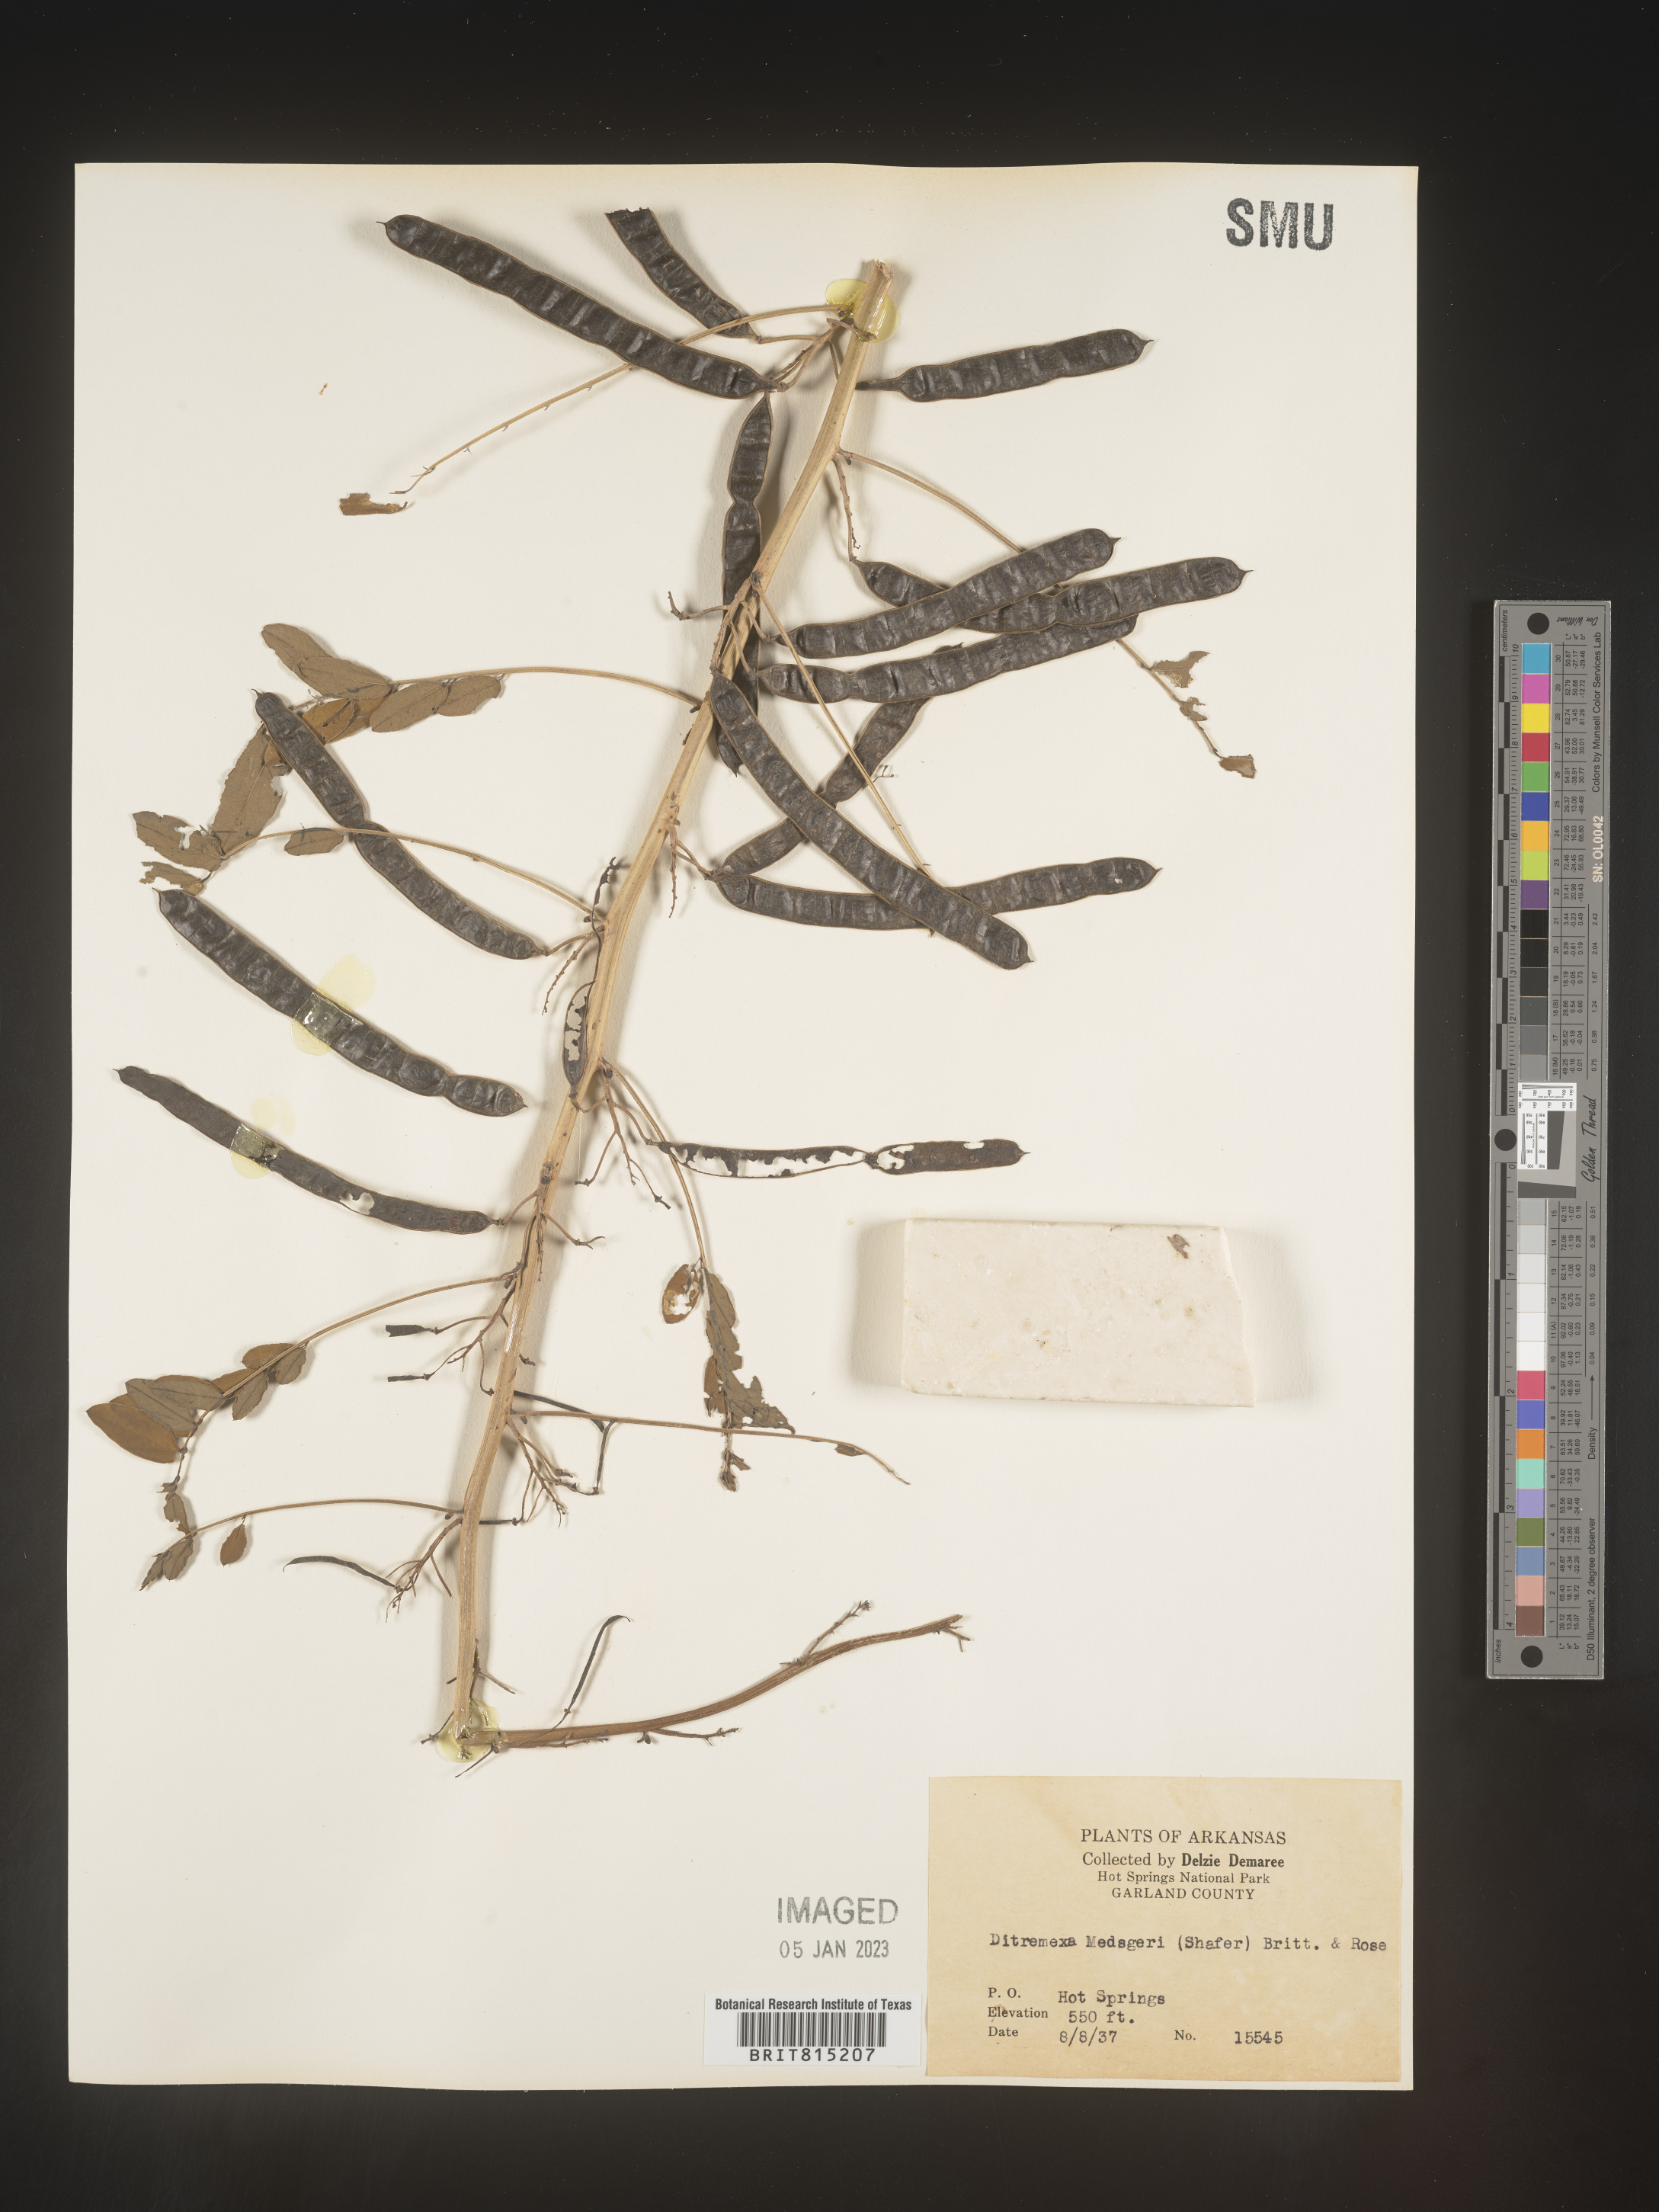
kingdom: Plantae
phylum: Tracheophyta
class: Magnoliopsida
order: Fabales
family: Fabaceae
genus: Senna
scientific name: Senna marilandica
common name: American senna
